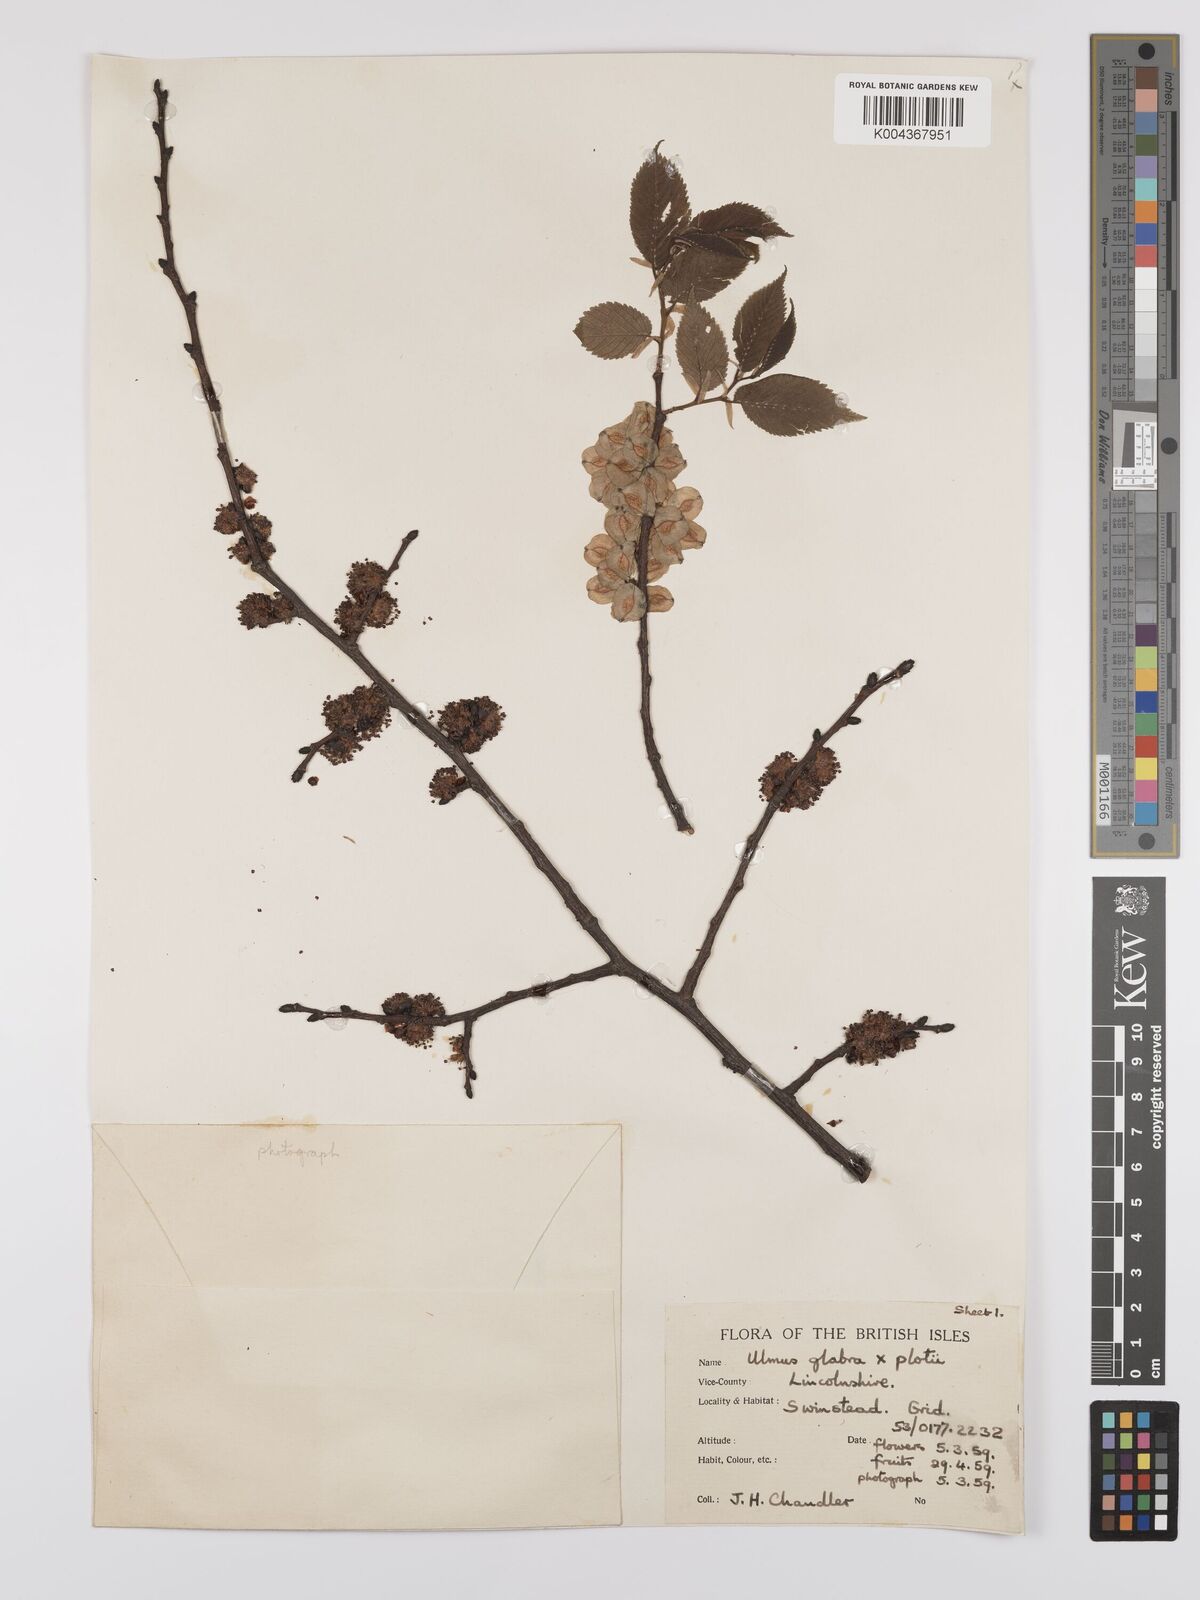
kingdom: Plantae
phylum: Tracheophyta
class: Magnoliopsida
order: Rosales
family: Ulmaceae
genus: Ulmus
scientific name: Ulmus glabra
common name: Wych elm
